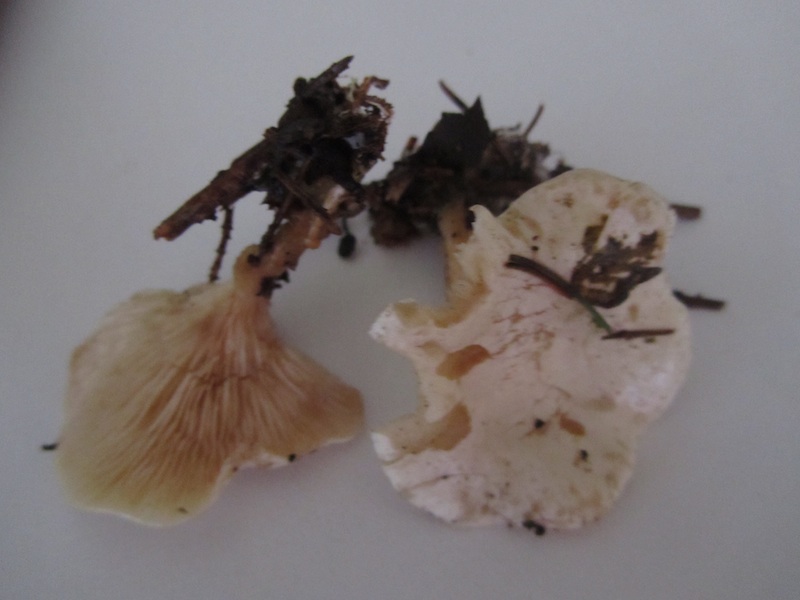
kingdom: Fungi
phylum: Basidiomycota
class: Agaricomycetes
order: Agaricales
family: Tricholomataceae
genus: Clitocybe
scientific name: Clitocybe phyllophila
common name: løv-tragthat
